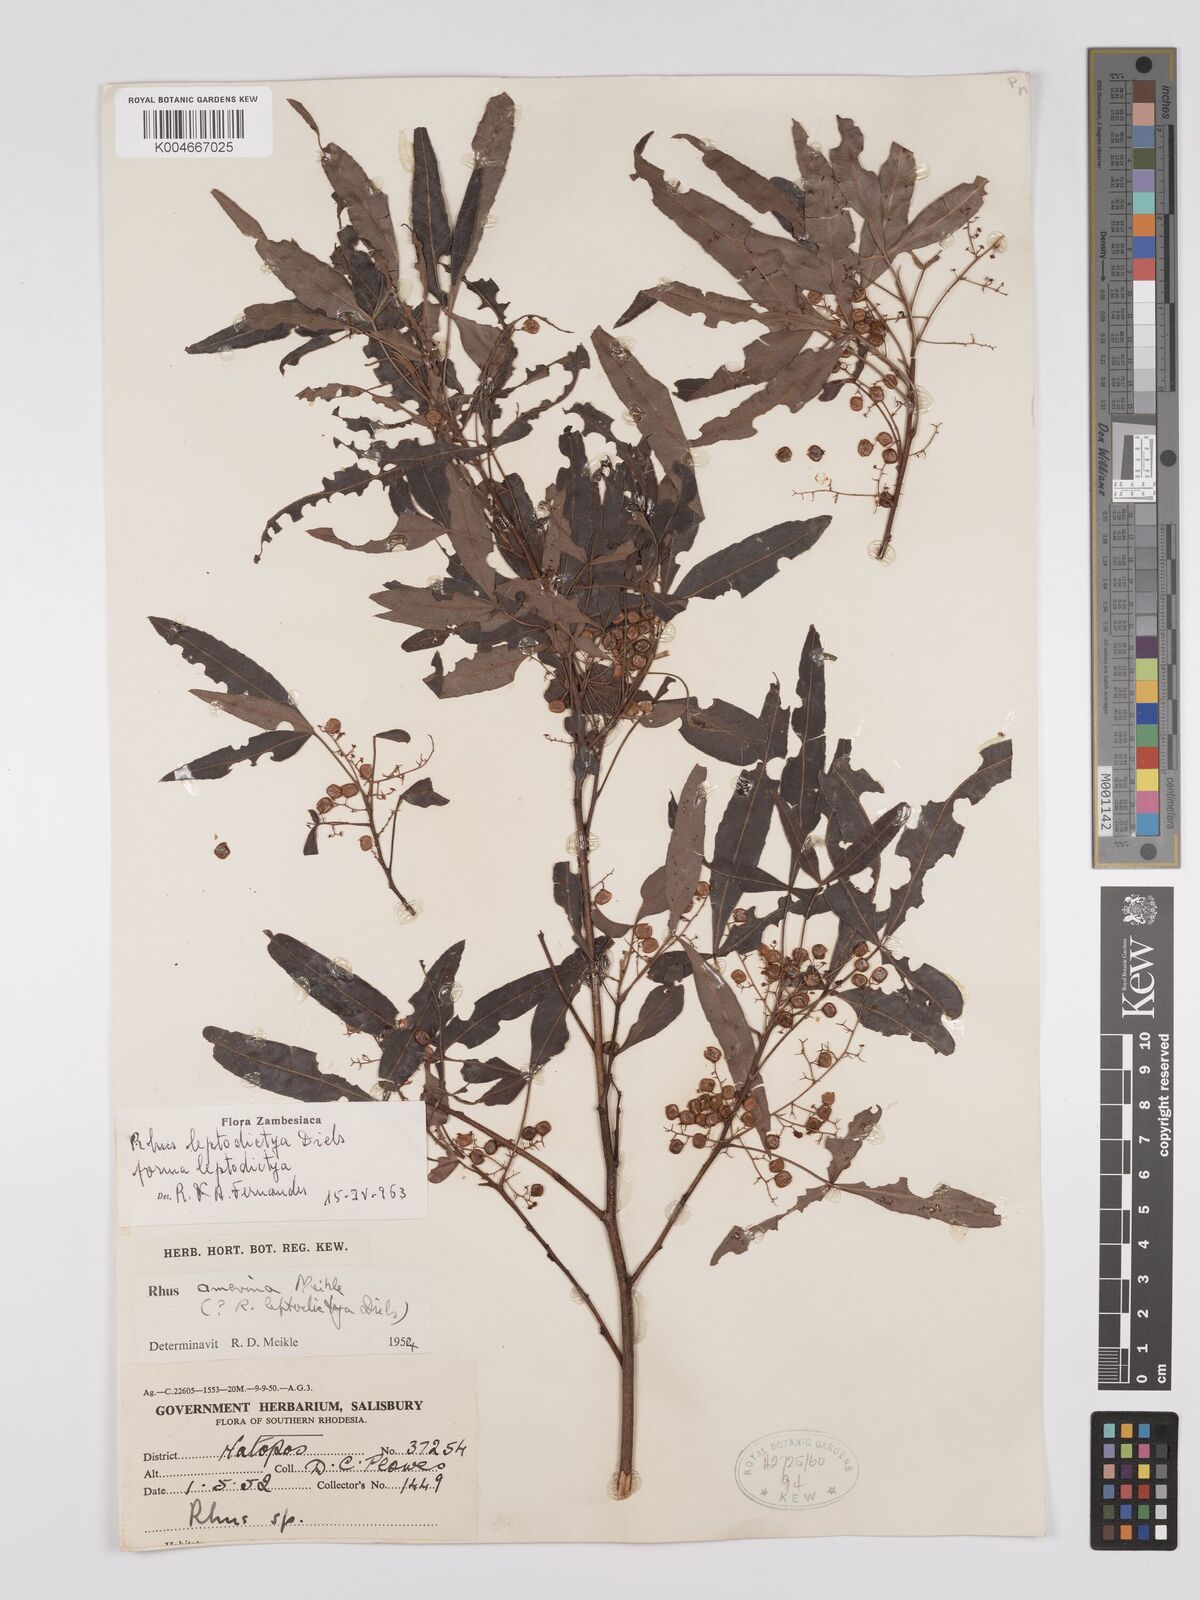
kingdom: Plantae
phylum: Tracheophyta
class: Magnoliopsida
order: Sapindales
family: Anacardiaceae
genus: Searsia
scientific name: Searsia leptodictya
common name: Mountain karee
